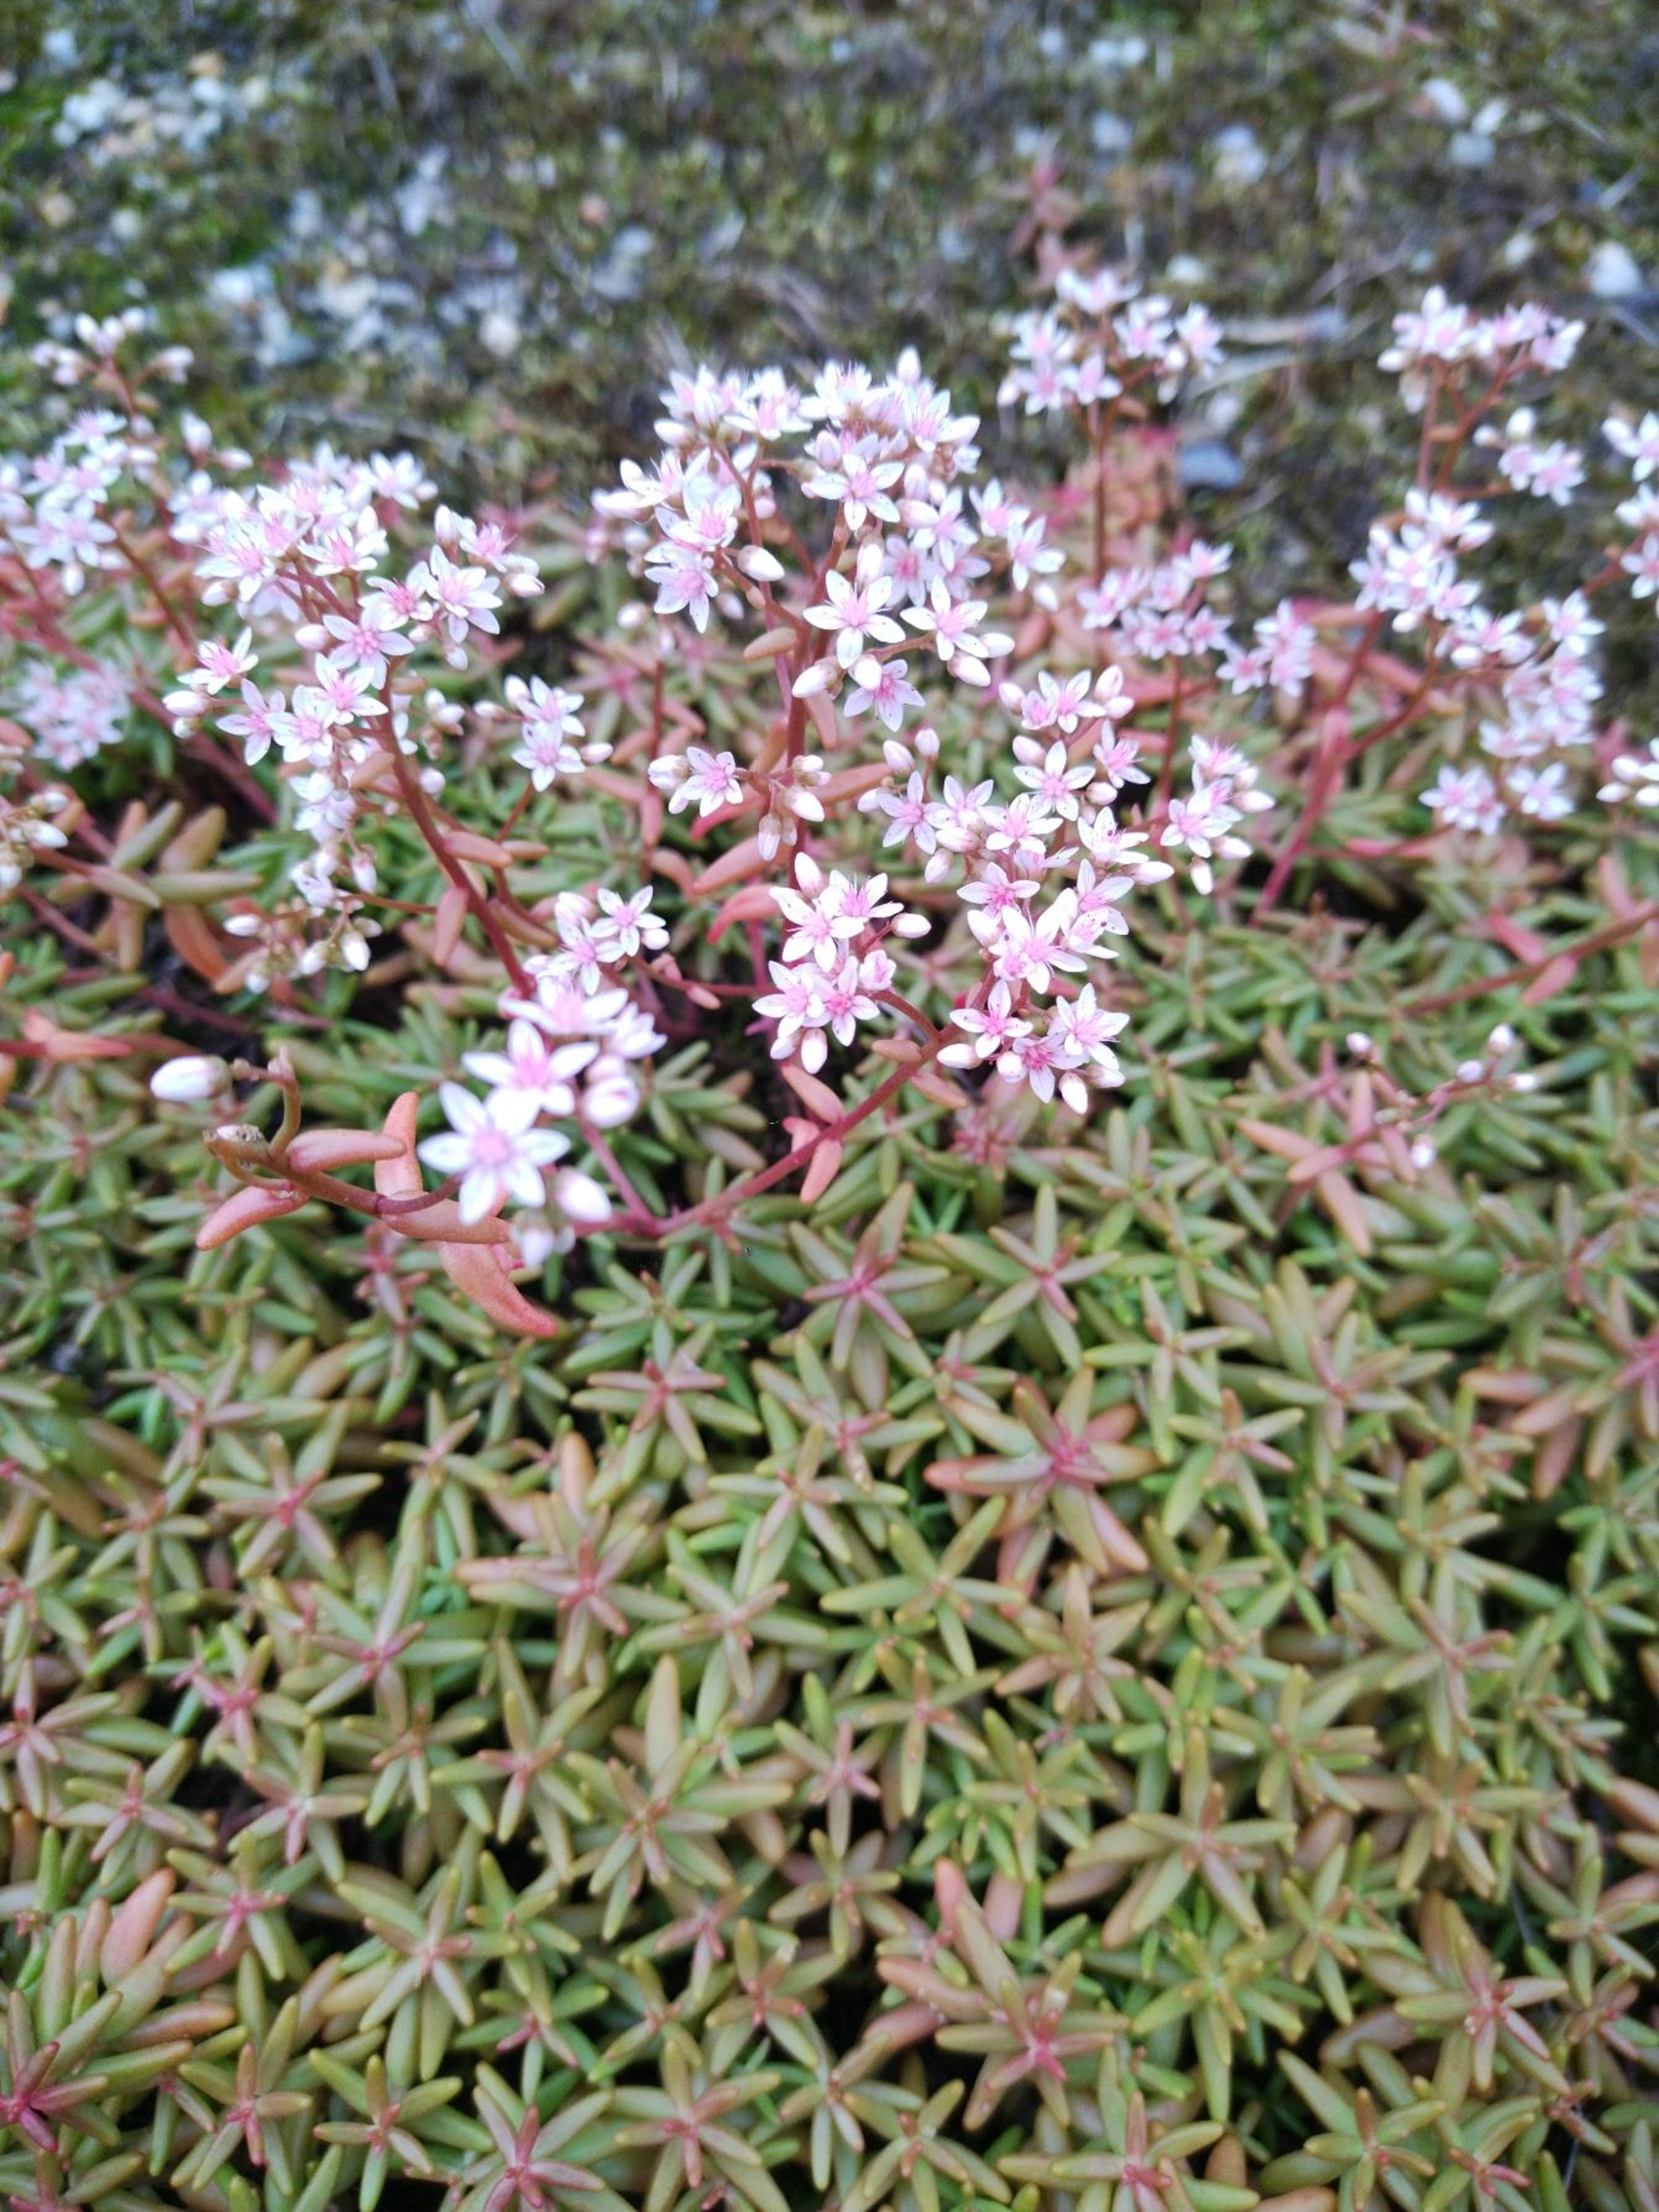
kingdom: Plantae
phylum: Tracheophyta
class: Magnoliopsida
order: Saxifragales
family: Crassulaceae
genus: Sedum
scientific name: Sedum album
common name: Hvid stenurt
